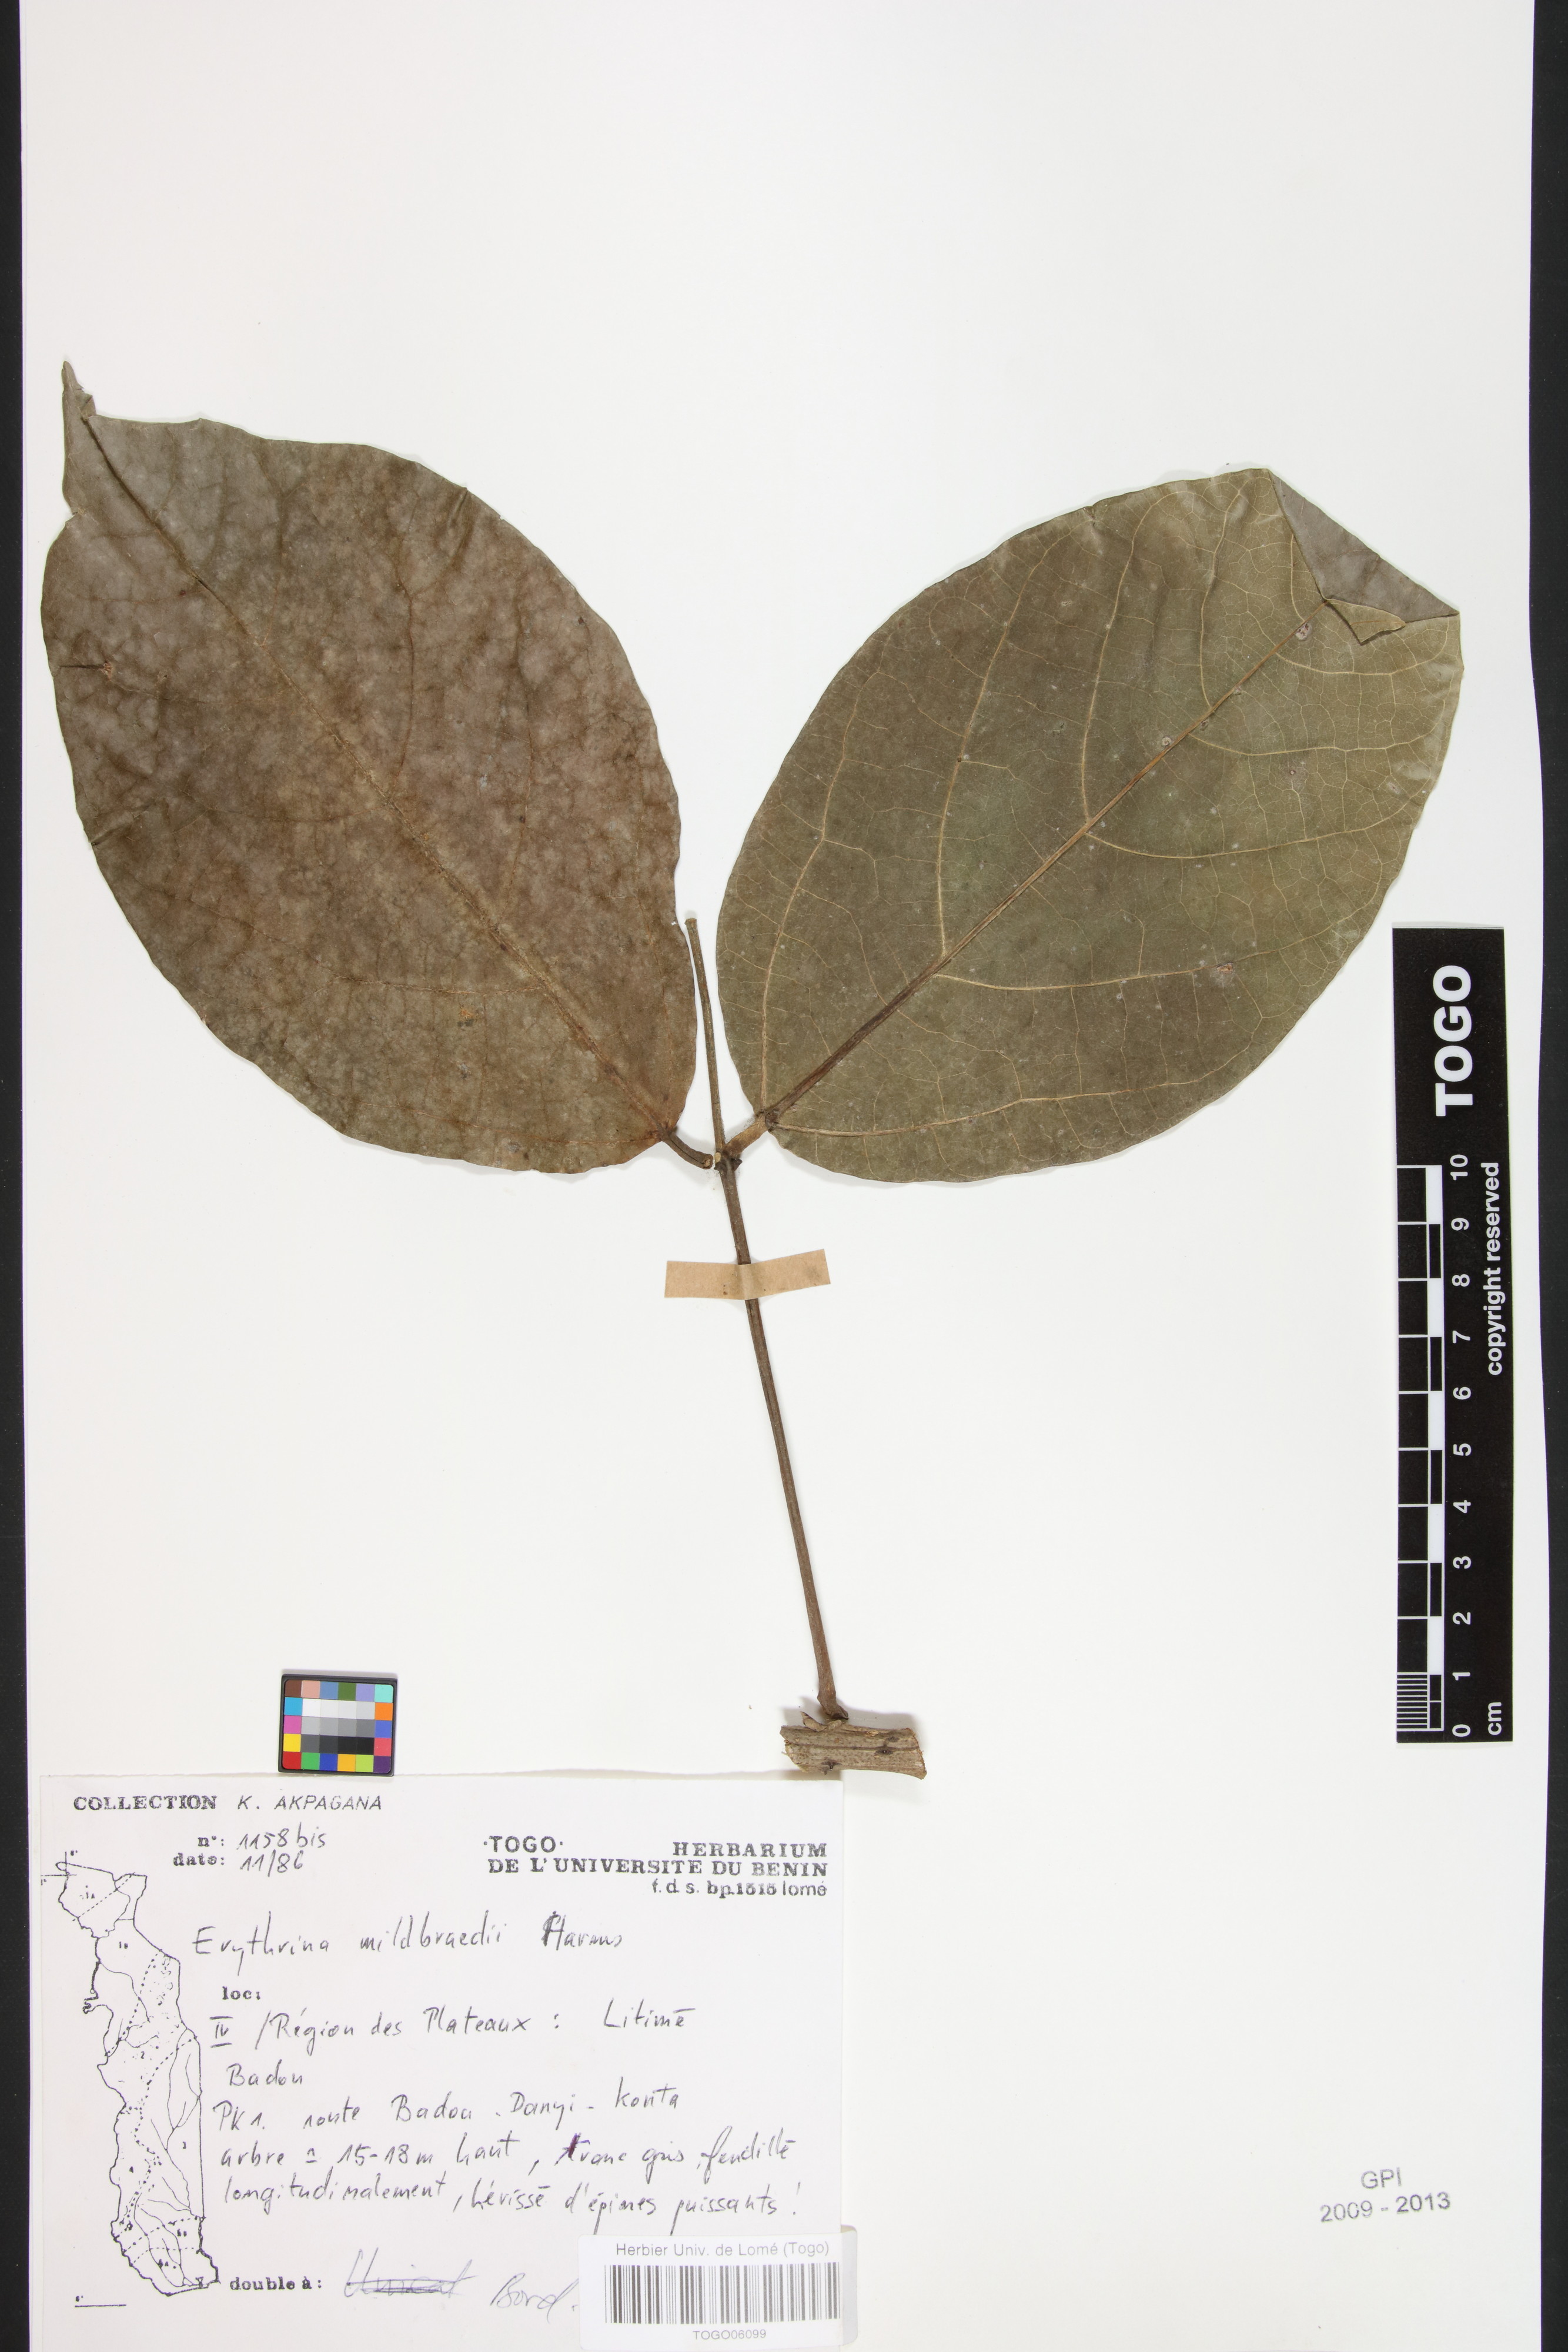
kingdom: Plantae
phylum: Tracheophyta
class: Magnoliopsida
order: Fabales
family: Fabaceae
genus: Eriosema
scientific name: Eriosema pulcherrimum
